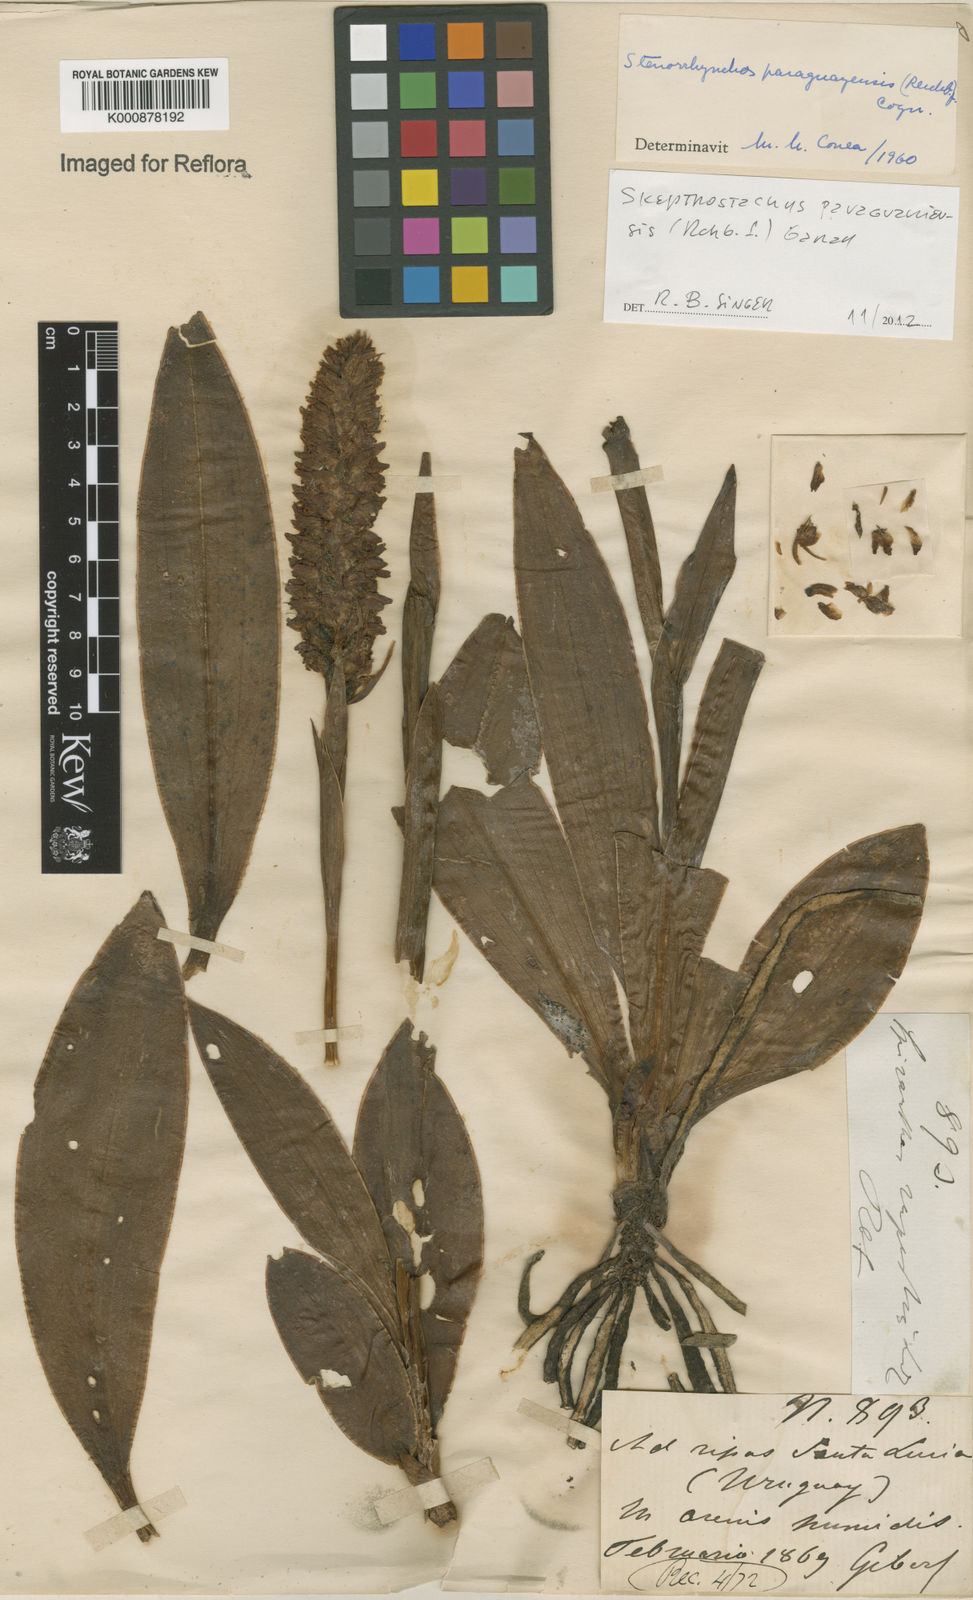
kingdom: Plantae
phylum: Tracheophyta
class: Liliopsida
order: Asparagales
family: Orchidaceae
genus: Skeptrostachys
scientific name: Skeptrostachys paraguayensis
